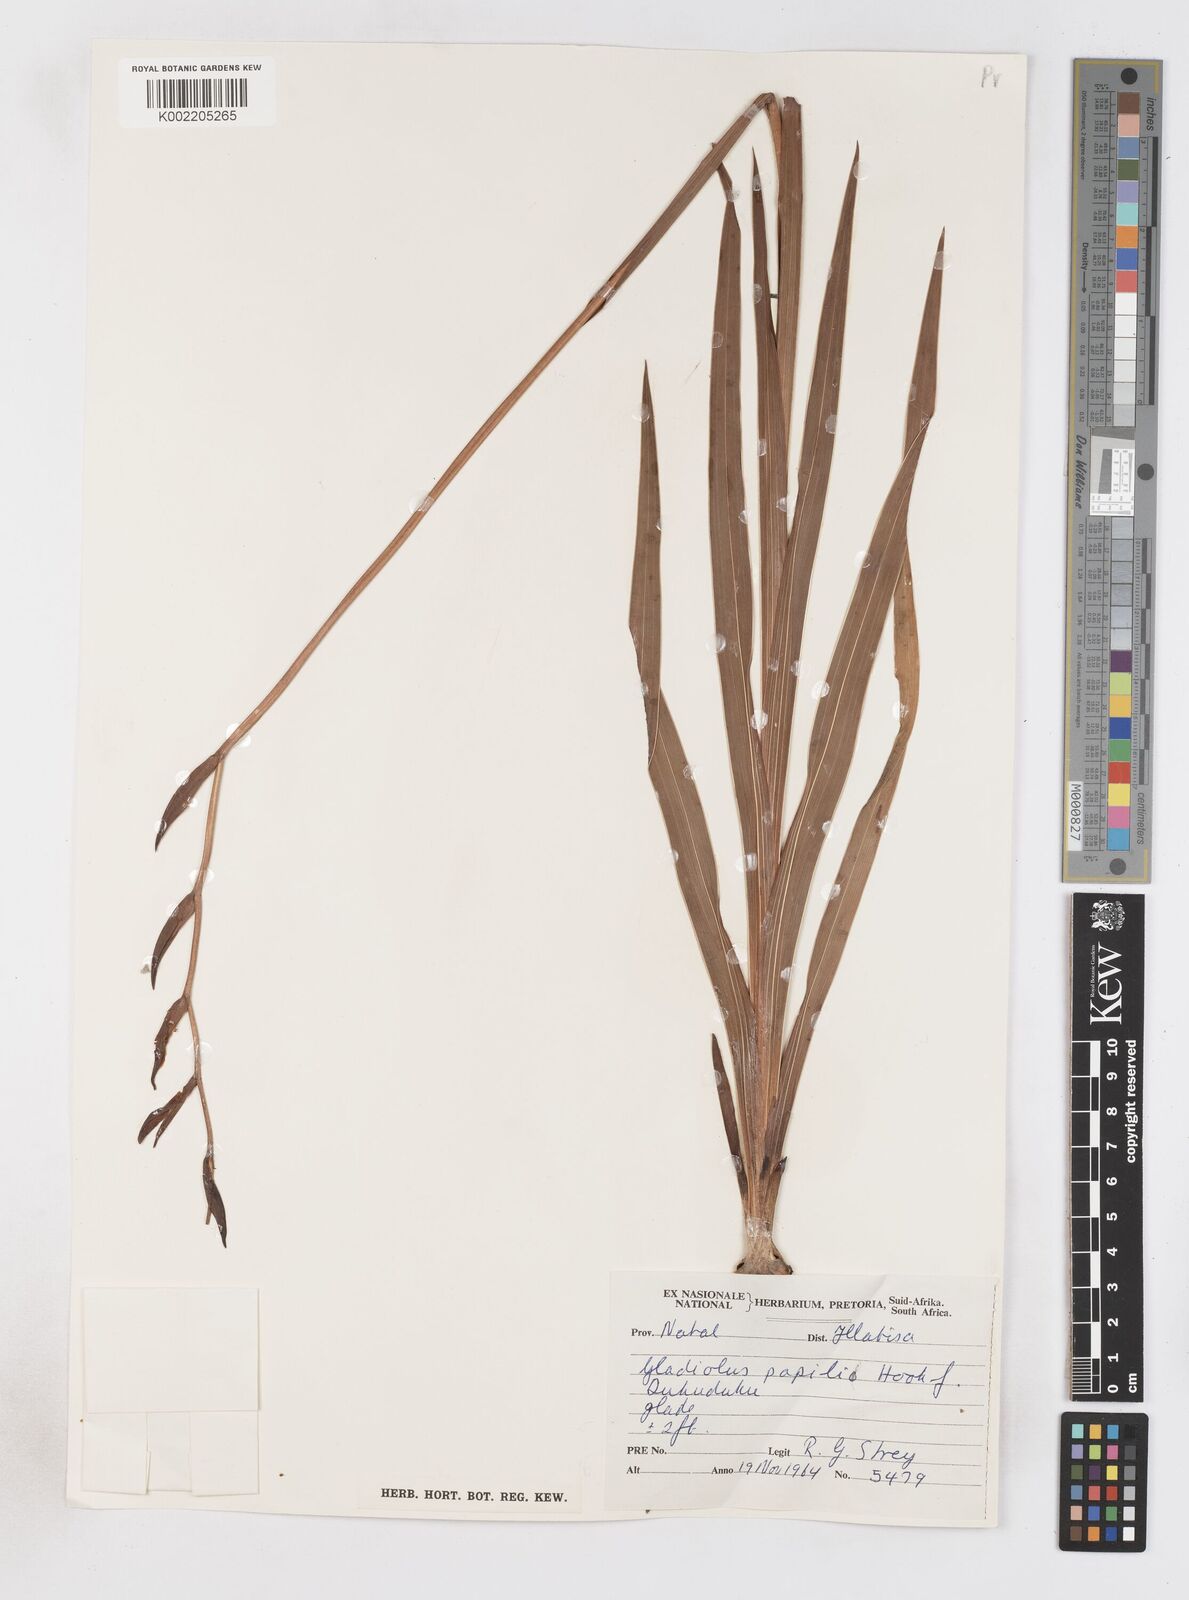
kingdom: Plantae
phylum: Tracheophyta
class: Liliopsida
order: Asparagales
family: Iridaceae
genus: Gladiolus
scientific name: Gladiolus papilio
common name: Goldblotch gladiolus
